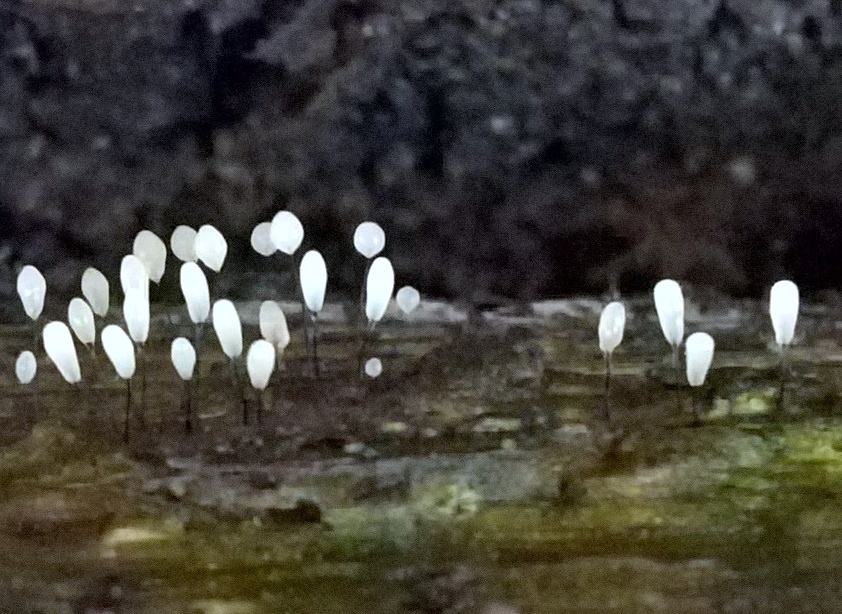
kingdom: Protozoa
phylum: Mycetozoa
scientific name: Mycetozoa
